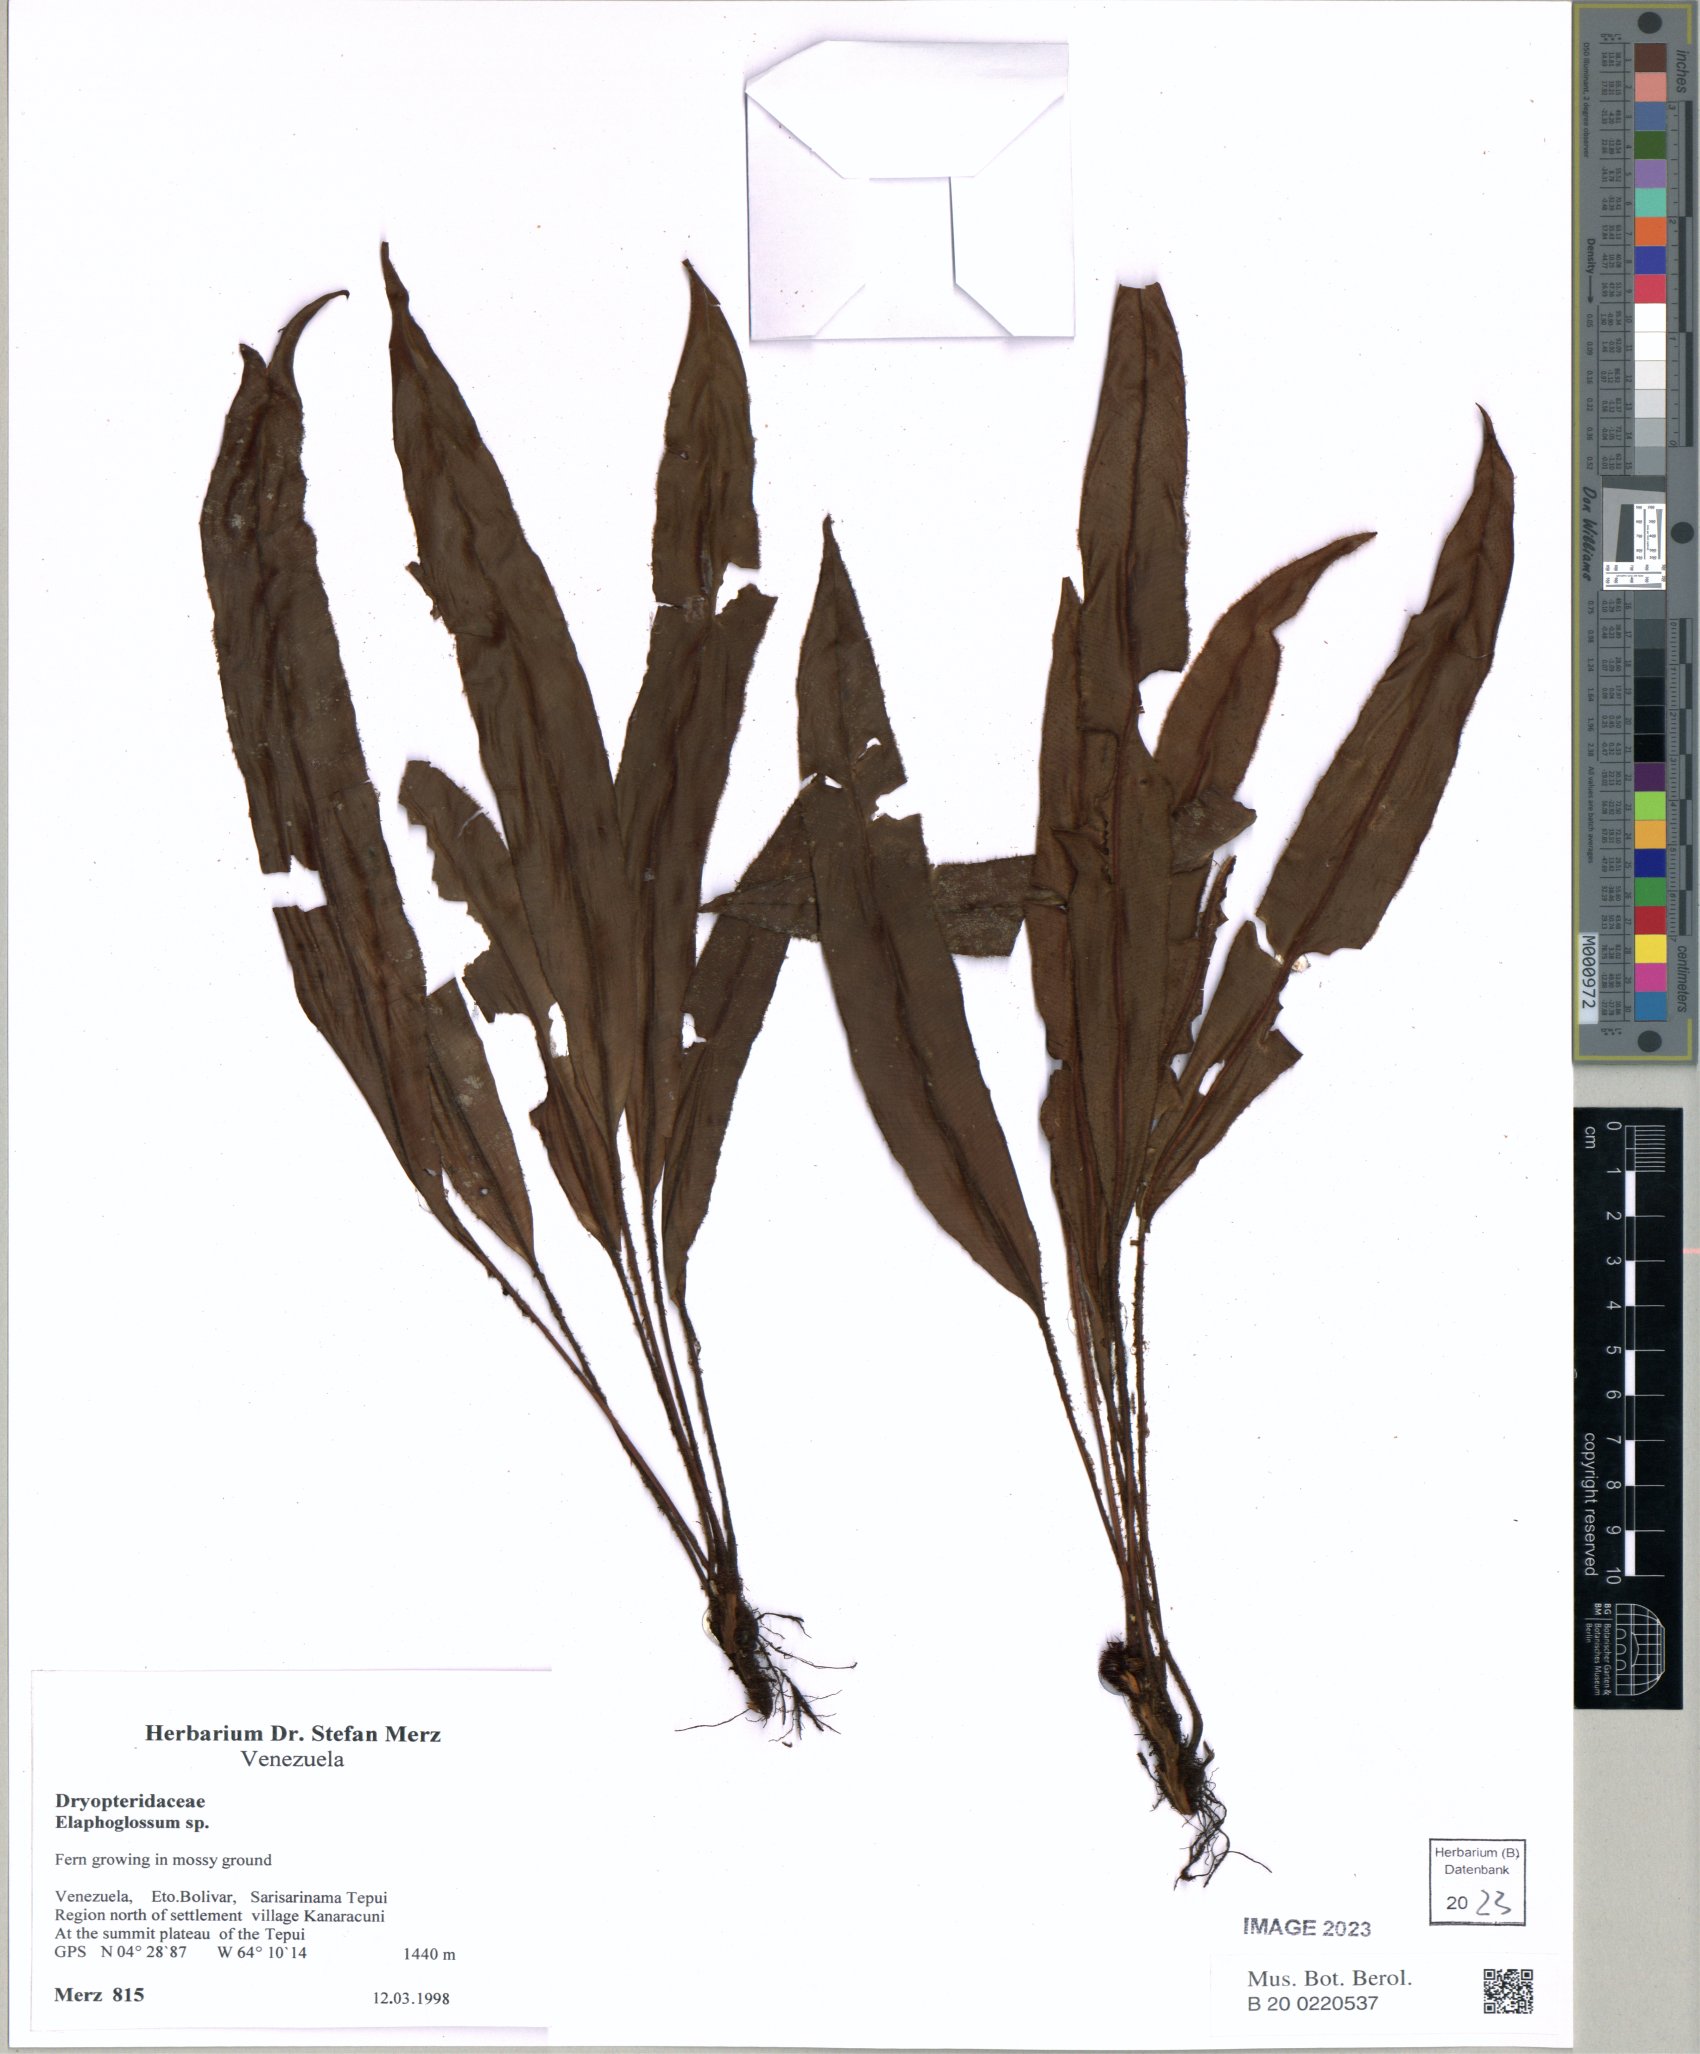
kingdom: Plantae
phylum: Tracheophyta
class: Polypodiopsida
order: Polypodiales
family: Dryopteridaceae
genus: Elaphoglossum
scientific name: Elaphoglossum
